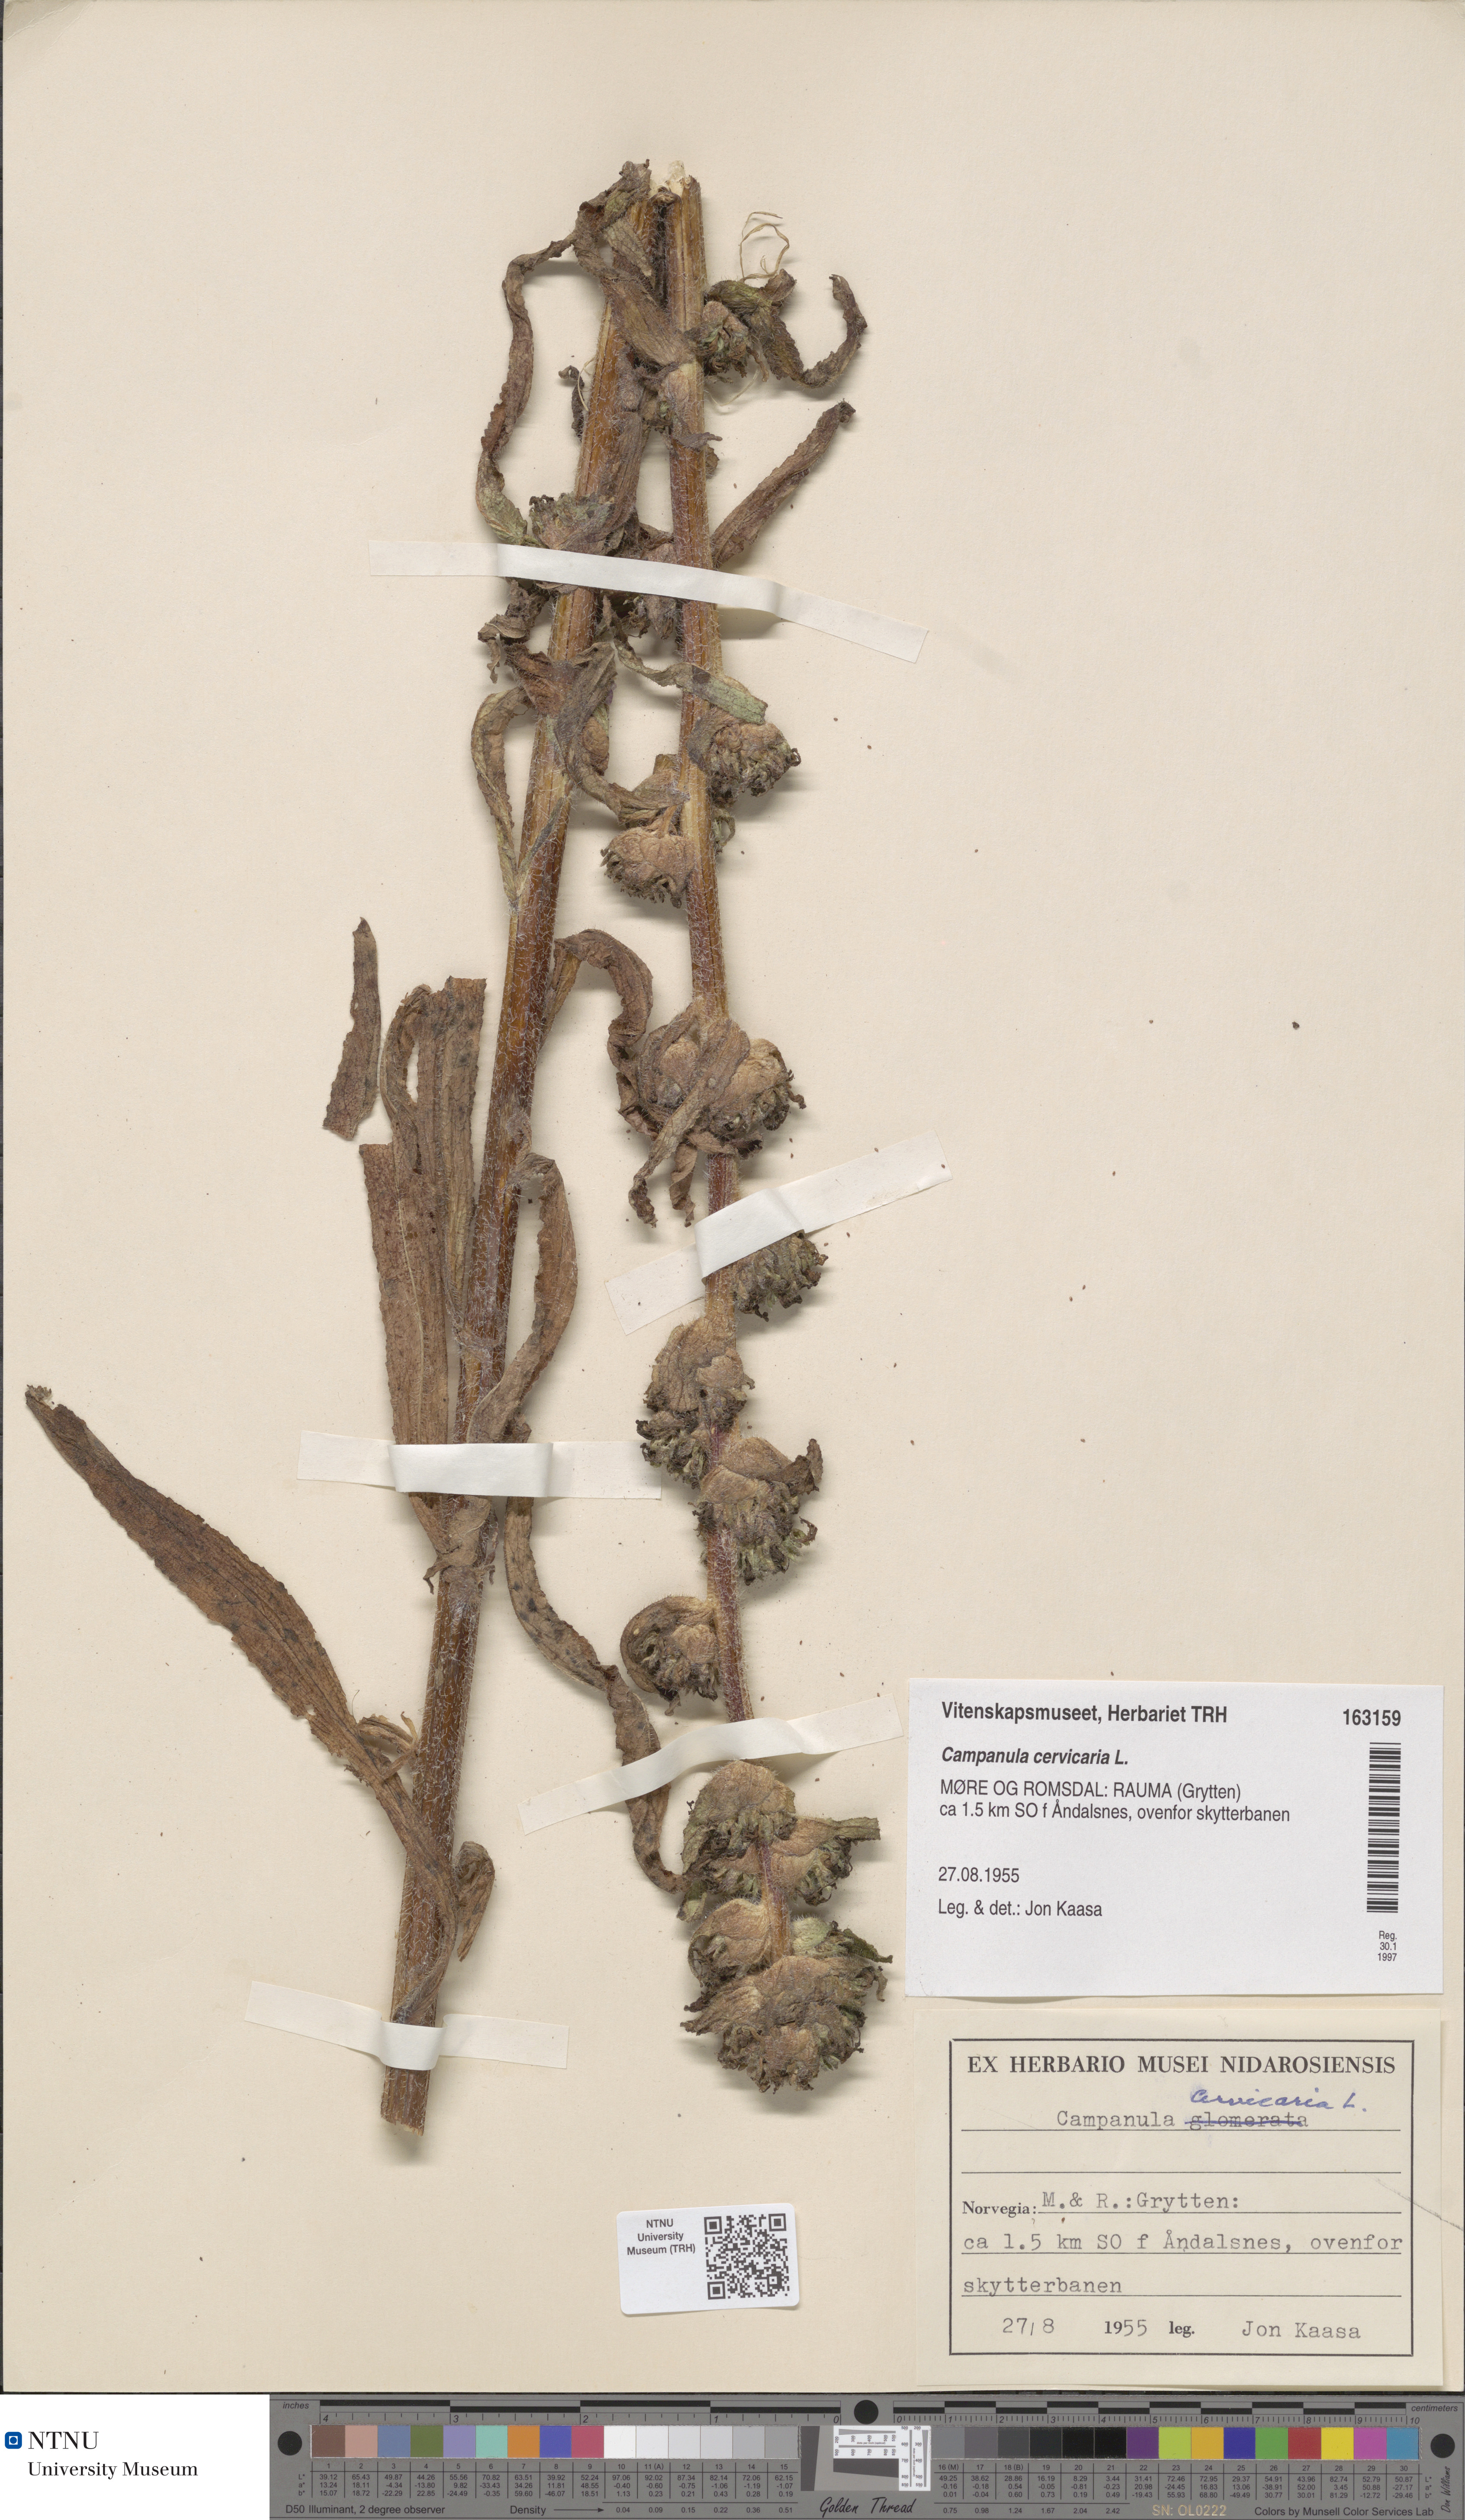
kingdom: Plantae
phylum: Tracheophyta
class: Magnoliopsida
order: Asterales
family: Campanulaceae
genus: Campanula
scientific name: Campanula cervicaria
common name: Bristly bellflower
